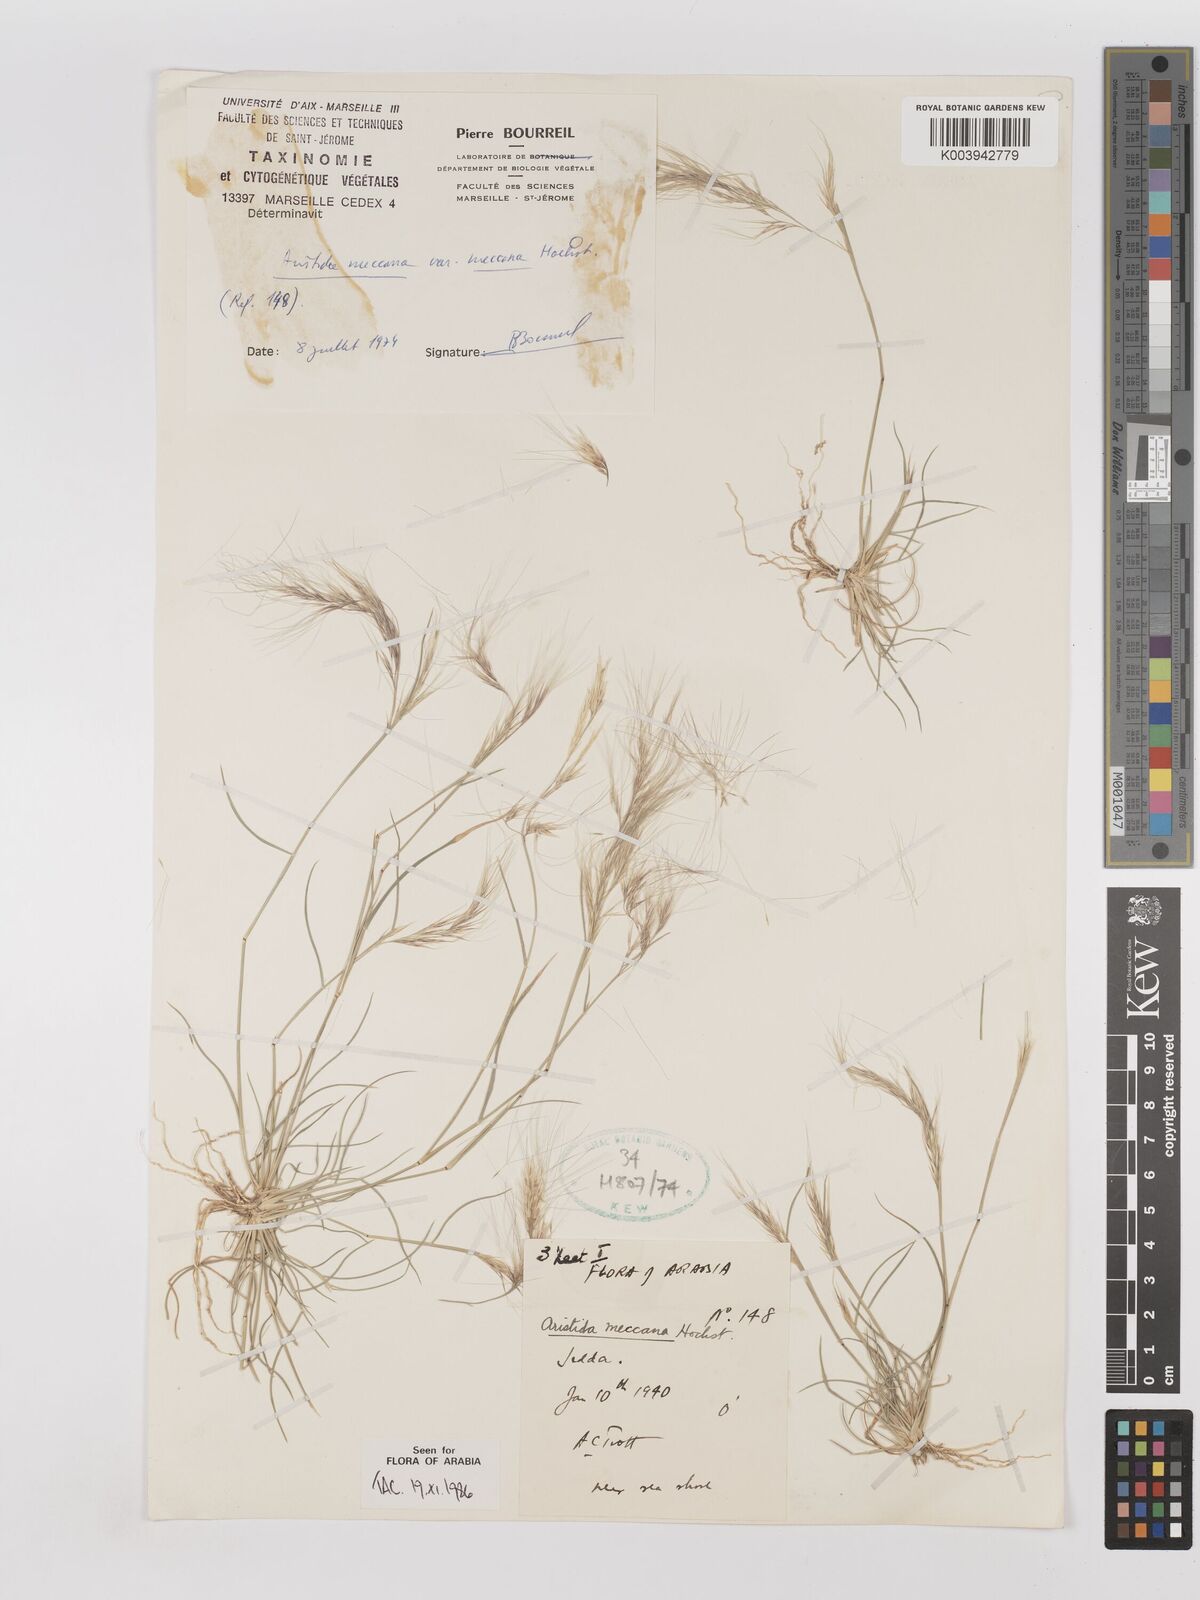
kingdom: Plantae
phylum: Tracheophyta
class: Liliopsida
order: Poales
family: Poaceae
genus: Aristida
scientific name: Aristida mutabilis
